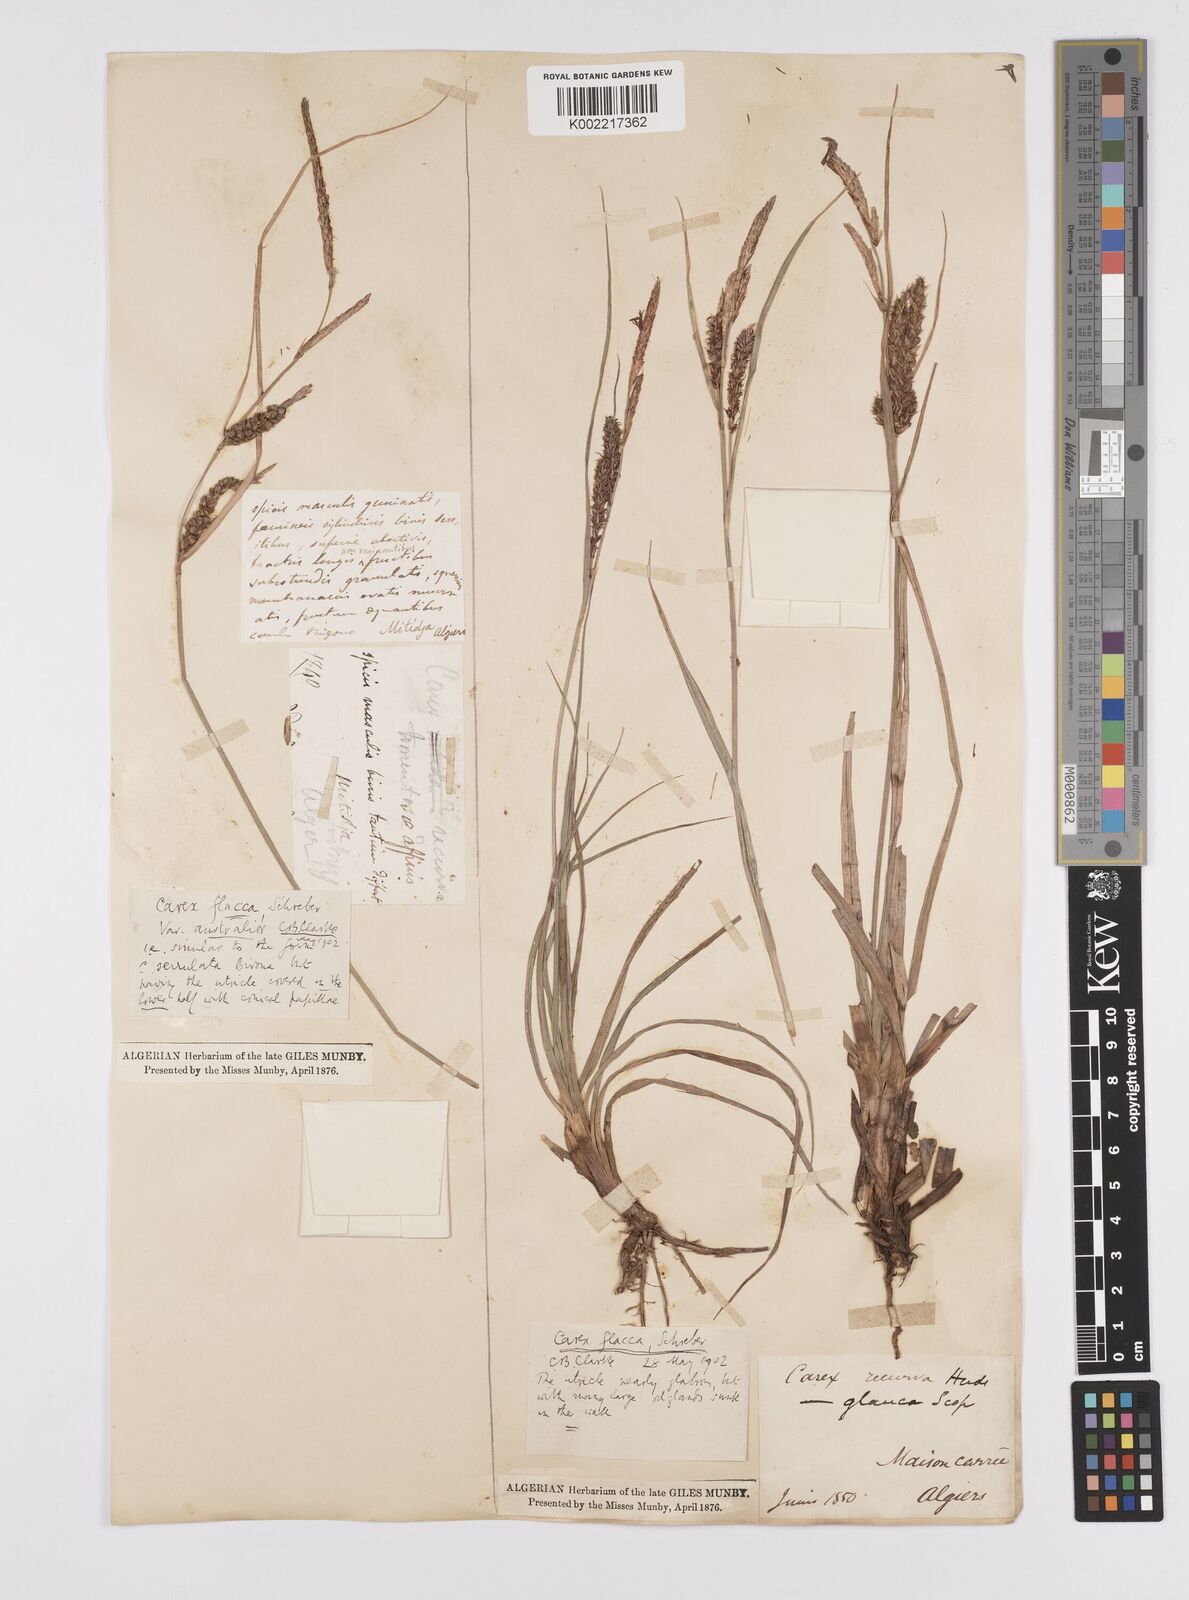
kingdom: Plantae
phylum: Tracheophyta
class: Liliopsida
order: Poales
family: Cyperaceae
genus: Carex
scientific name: Carex flacca
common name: Glaucous sedge
